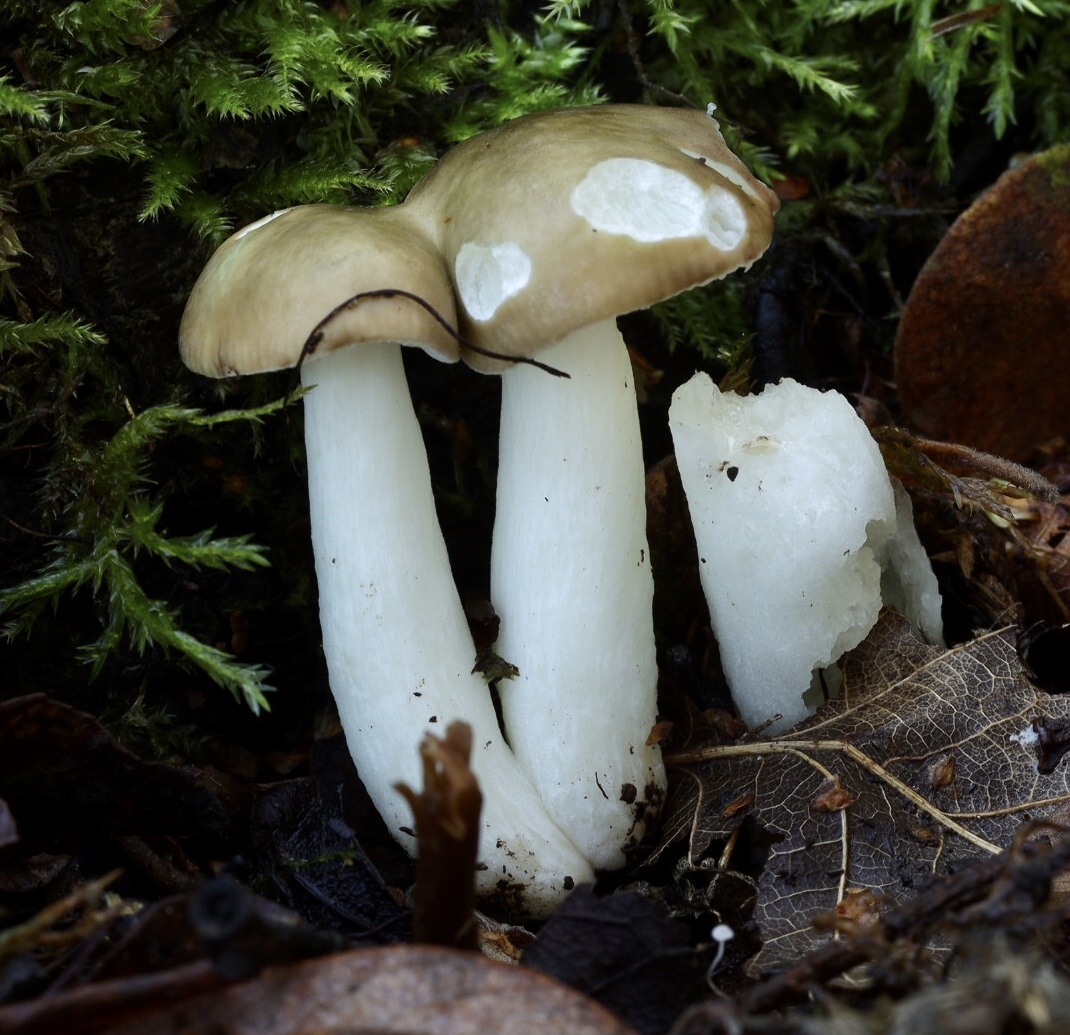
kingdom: Fungi
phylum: Basidiomycota
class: Agaricomycetes
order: Russulales
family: Russulaceae
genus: Russula
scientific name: Russula
